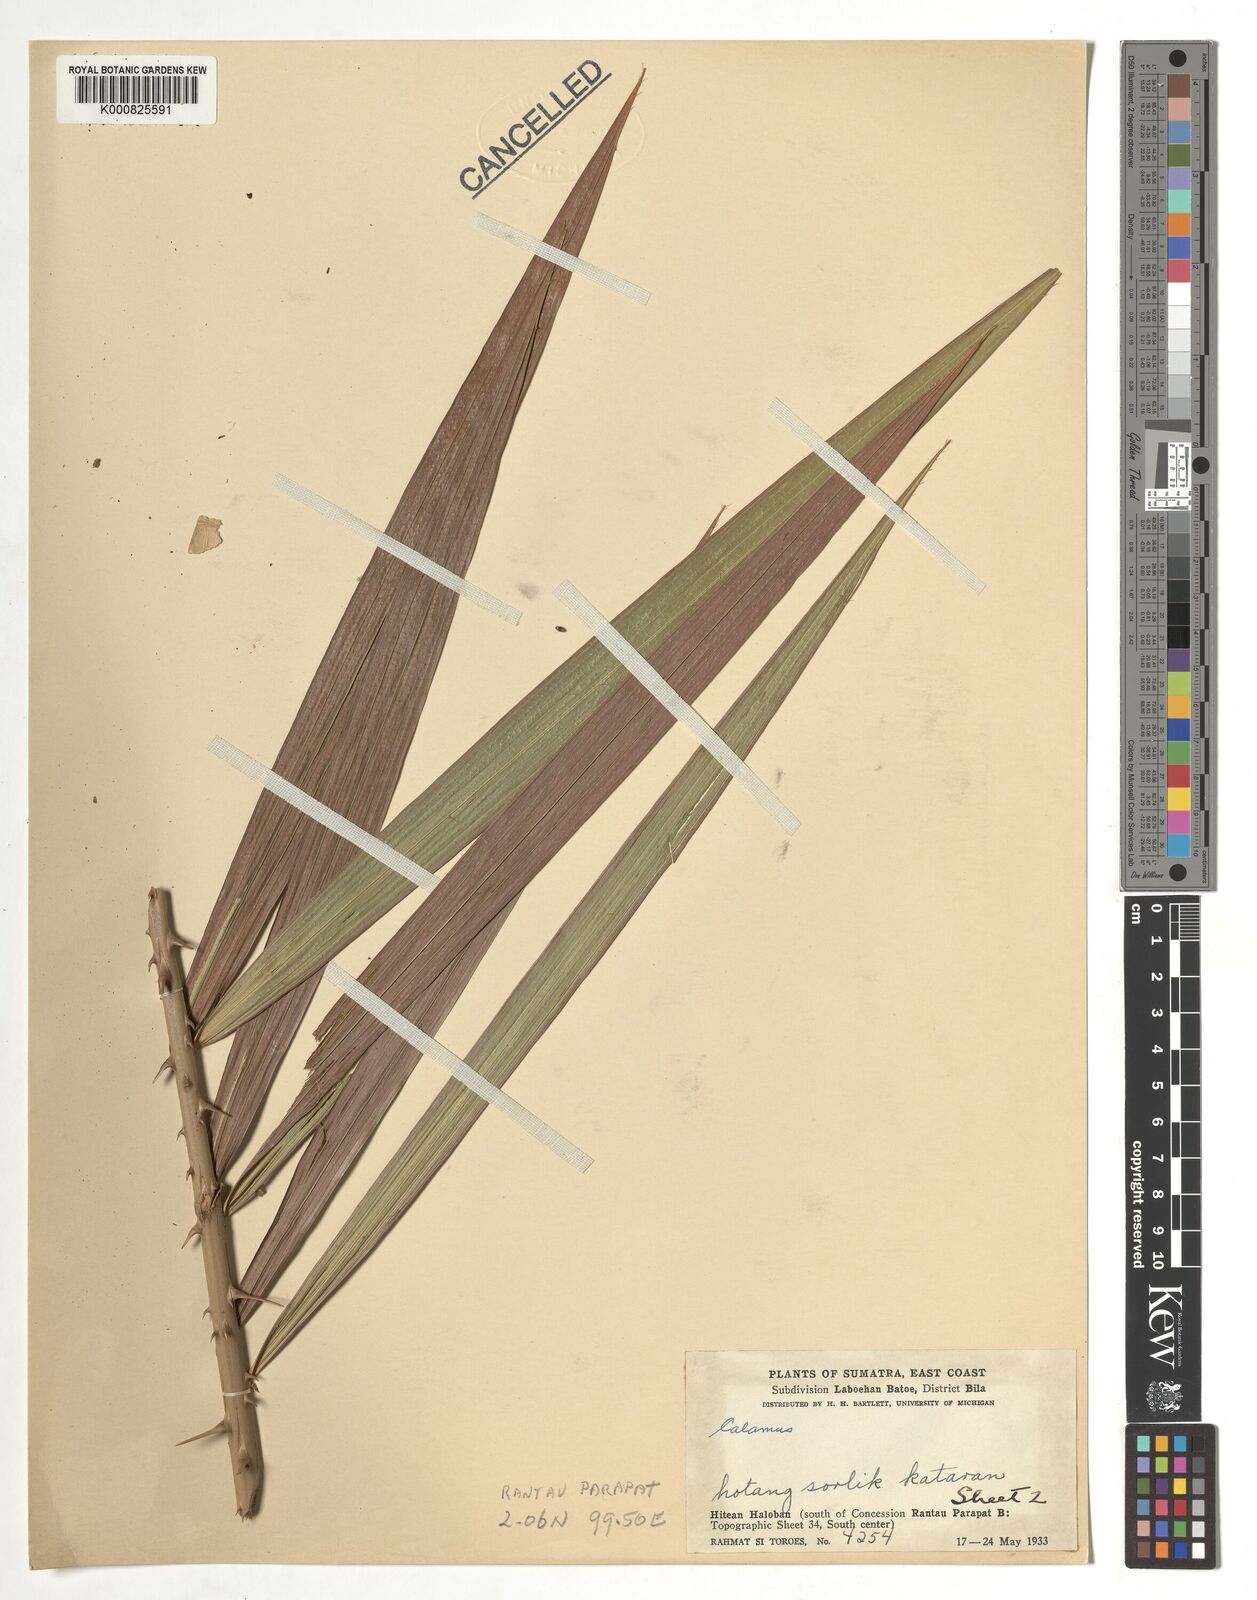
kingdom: Plantae
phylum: Tracheophyta
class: Liliopsida
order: Arecales
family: Arecaceae
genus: Calamus
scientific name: Calamus
